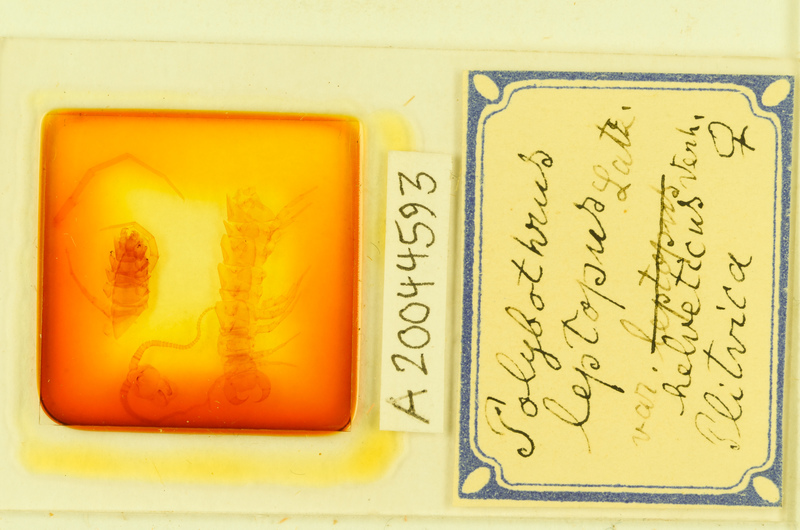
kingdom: Animalia
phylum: Arthropoda
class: Chilopoda
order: Lithobiomorpha
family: Lithobiidae
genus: Polybothrus
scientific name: Polybothrus leptopus
